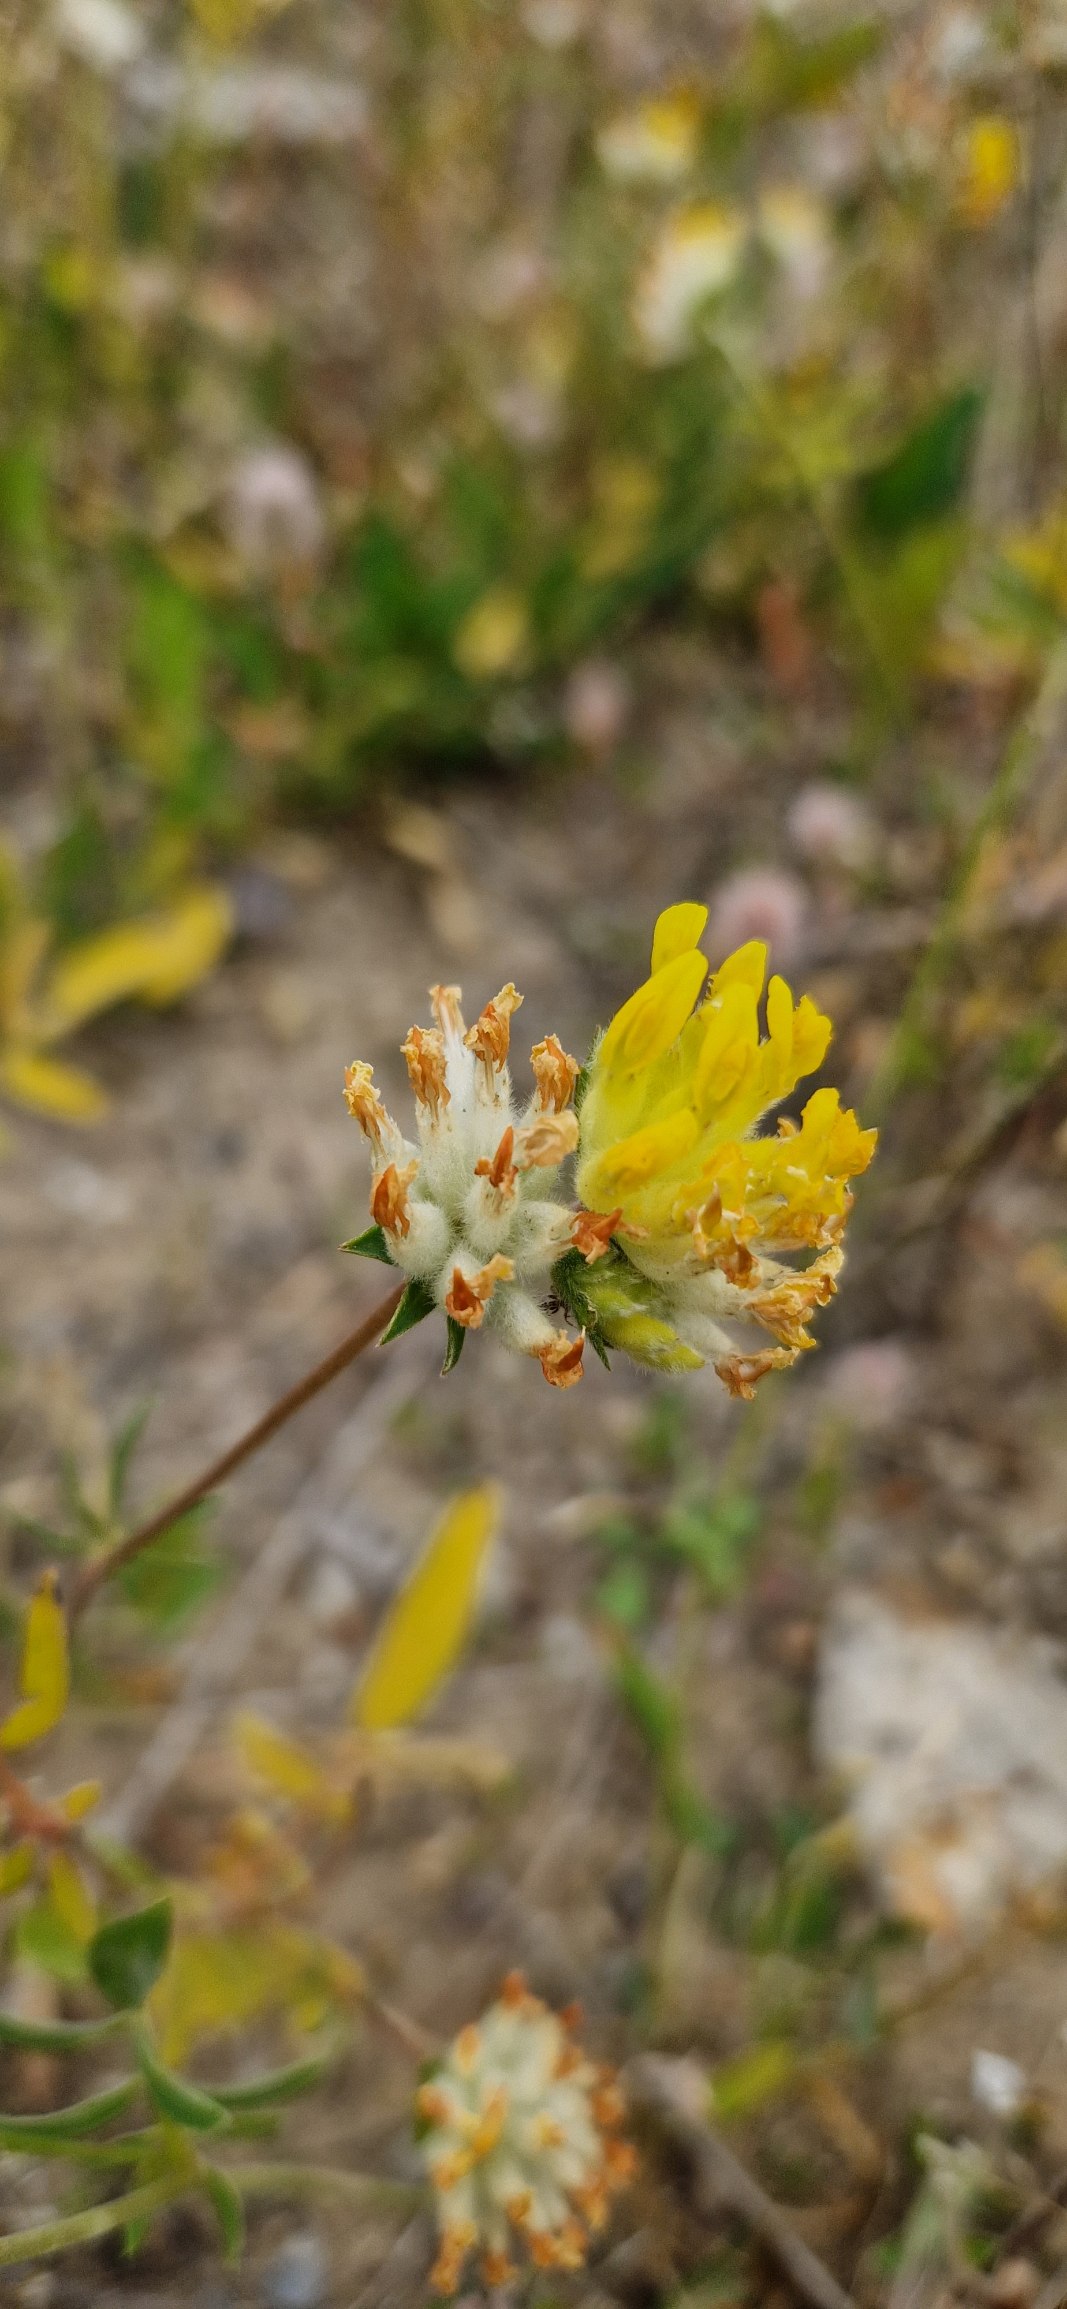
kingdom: Plantae
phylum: Tracheophyta
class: Magnoliopsida
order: Fabales
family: Fabaceae
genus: Anthyllis
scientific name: Anthyllis vulneraria
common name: Rundbælg
